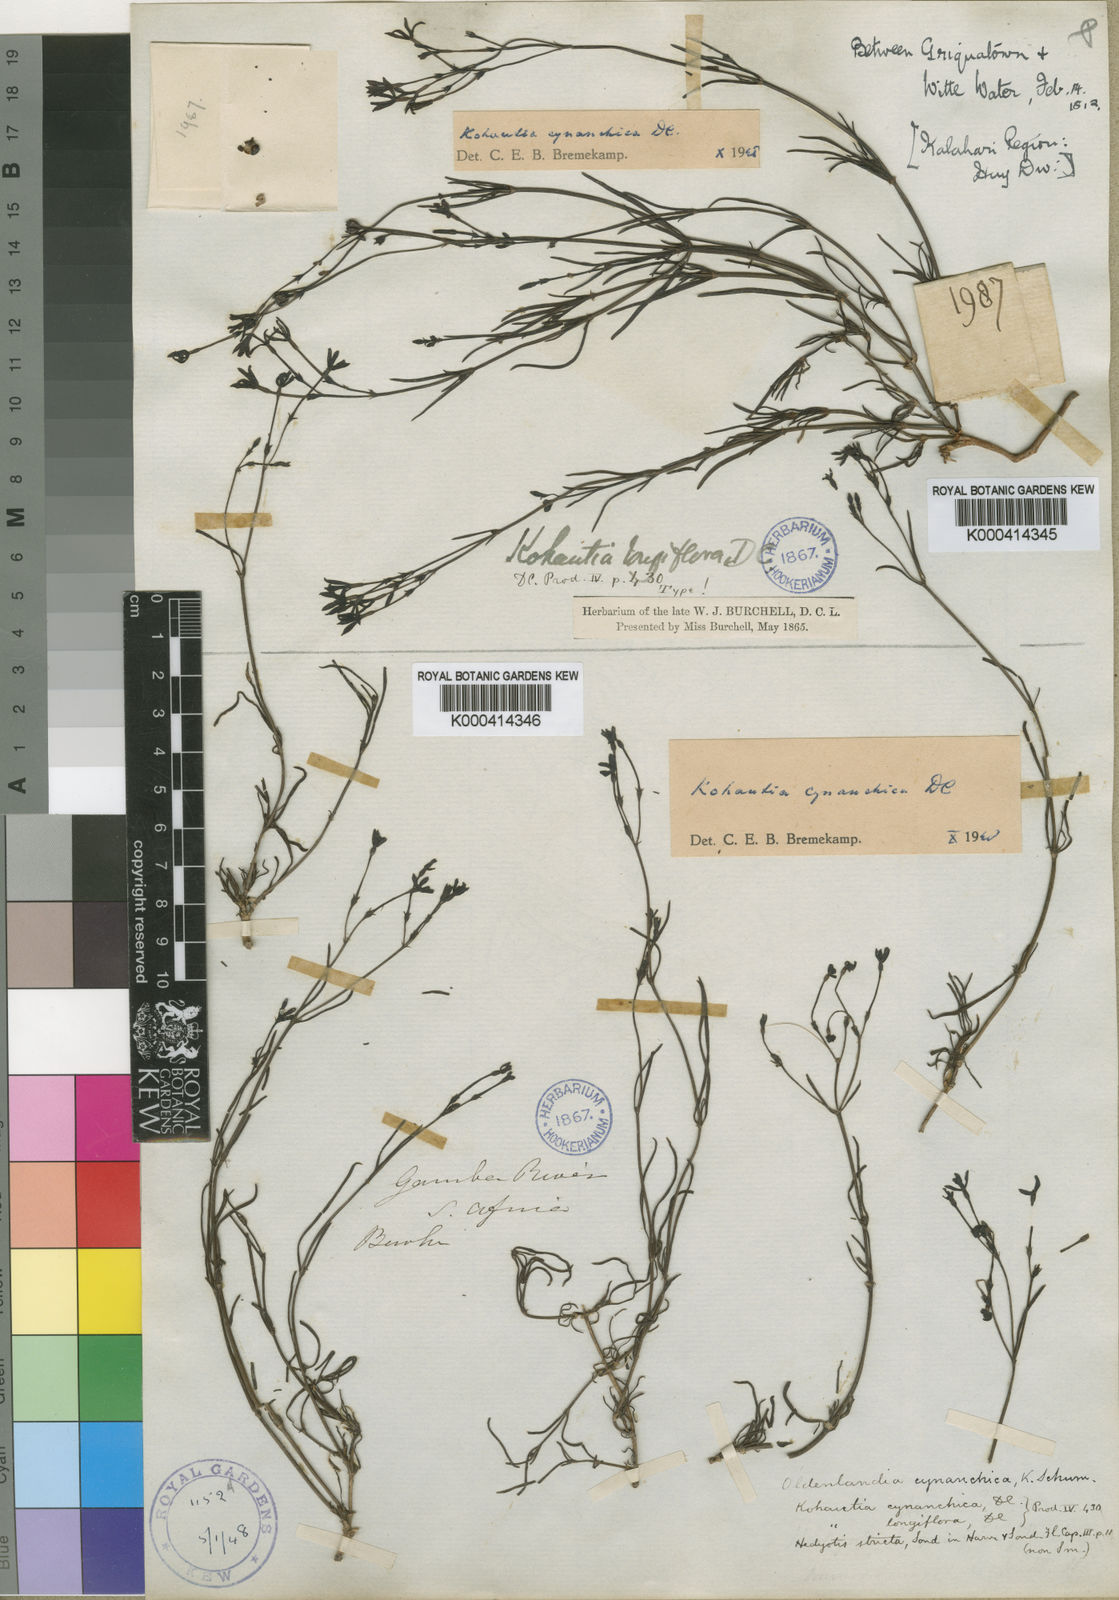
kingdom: Plantae
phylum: Tracheophyta
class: Magnoliopsida
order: Gentianales
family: Rubiaceae
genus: Kohautia
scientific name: Kohautia cynanchica
